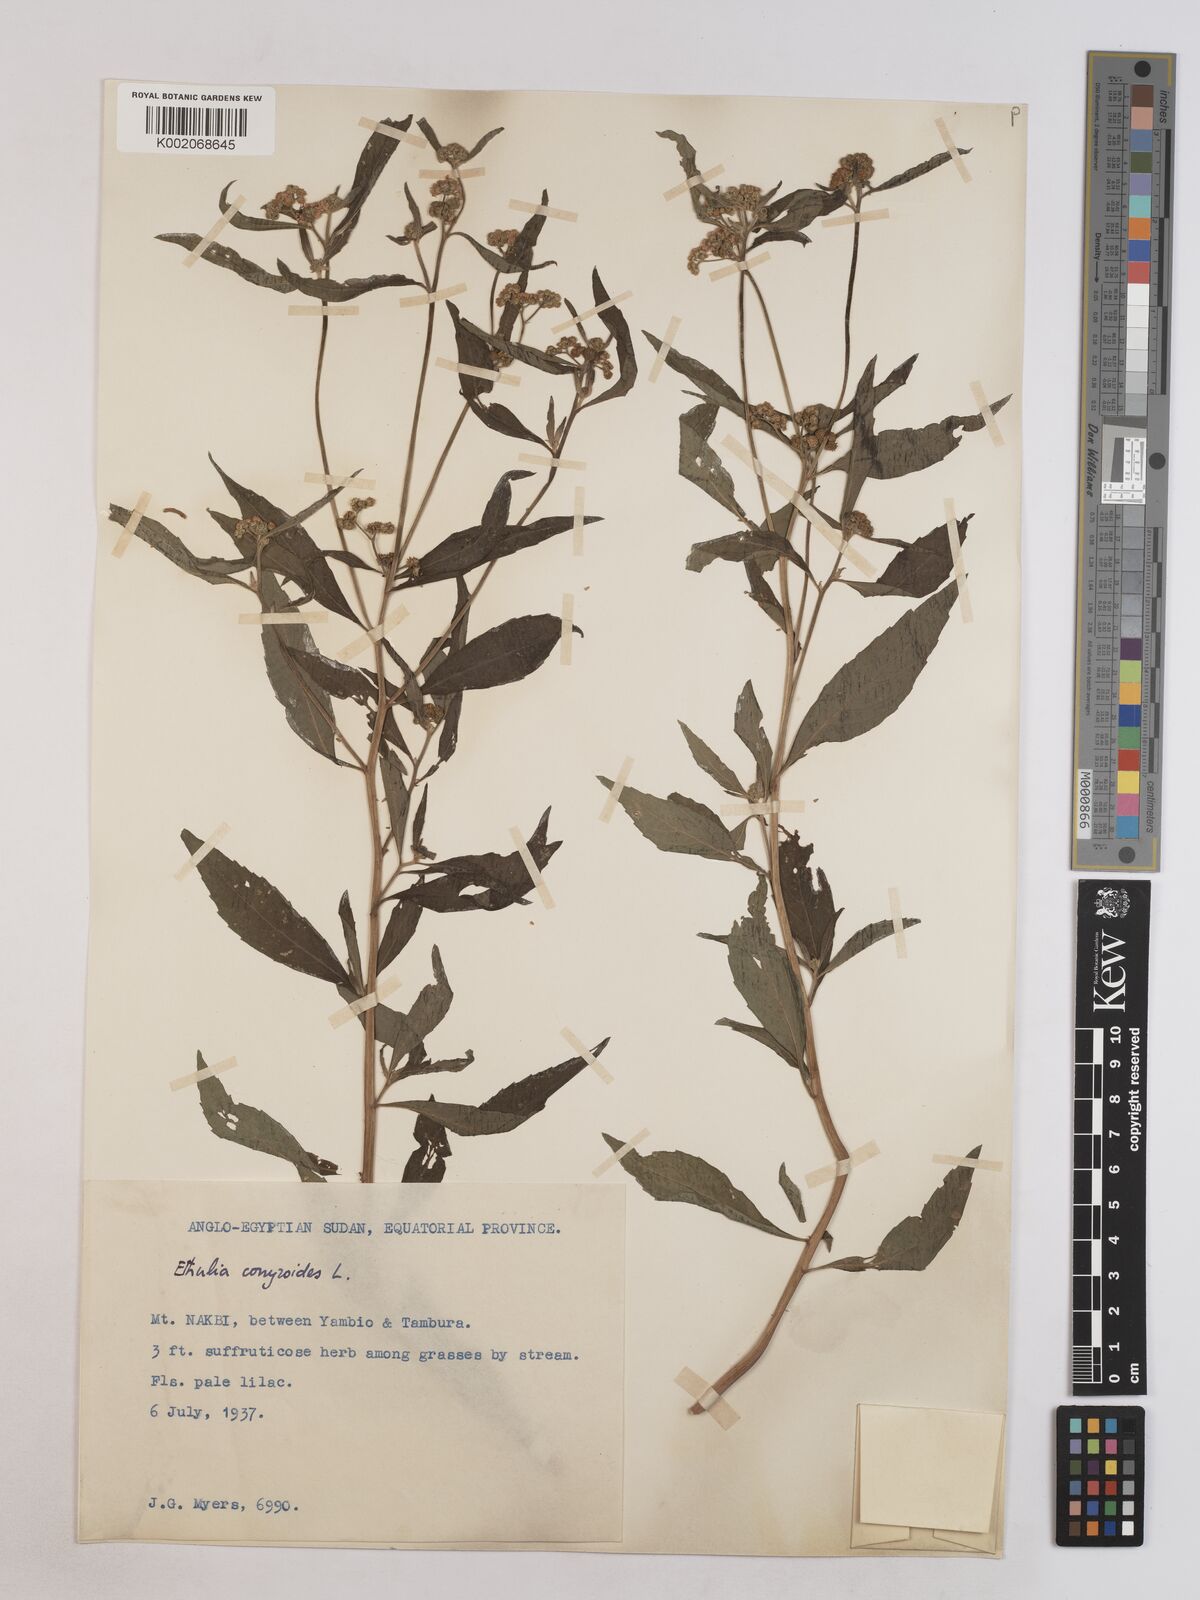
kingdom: Plantae
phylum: Tracheophyta
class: Magnoliopsida
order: Asterales
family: Asteraceae
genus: Ethulia
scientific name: Ethulia conyzoides
